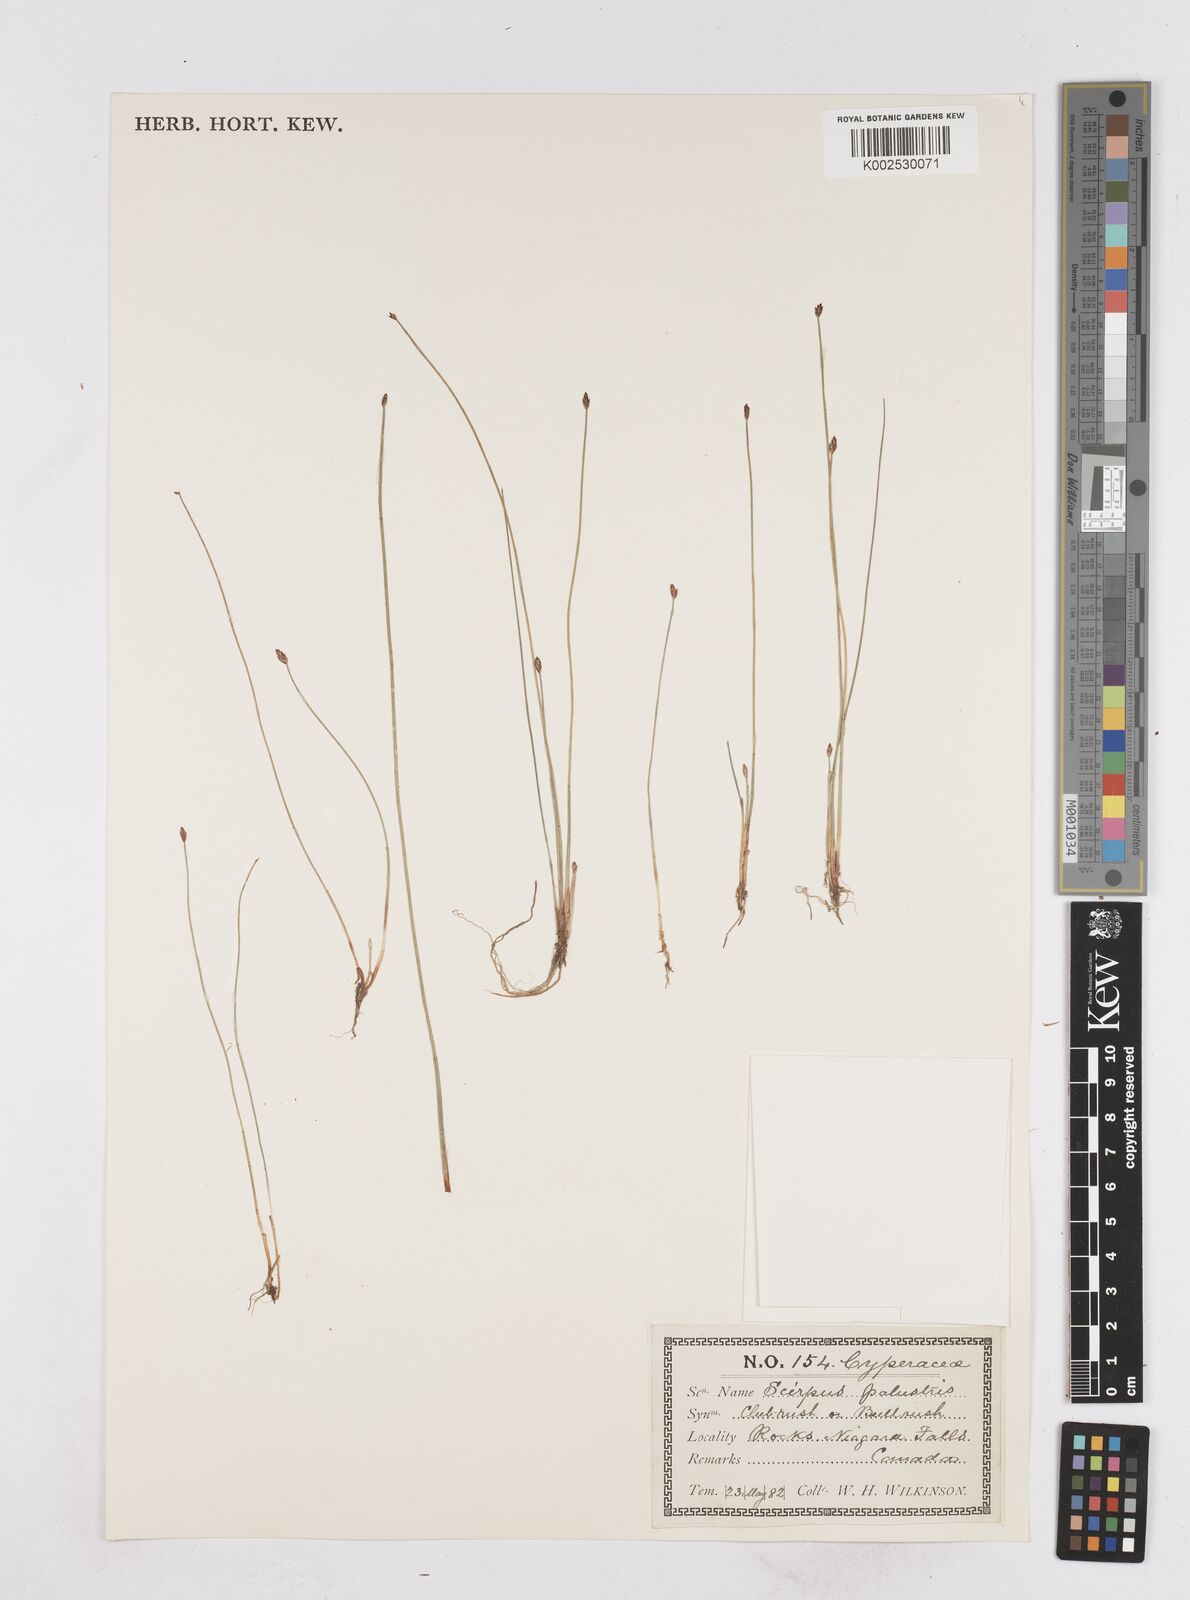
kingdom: Plantae
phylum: Tracheophyta
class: Liliopsida
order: Poales
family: Cyperaceae
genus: Eleocharis
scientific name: Eleocharis palustris
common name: Common spike-rush
